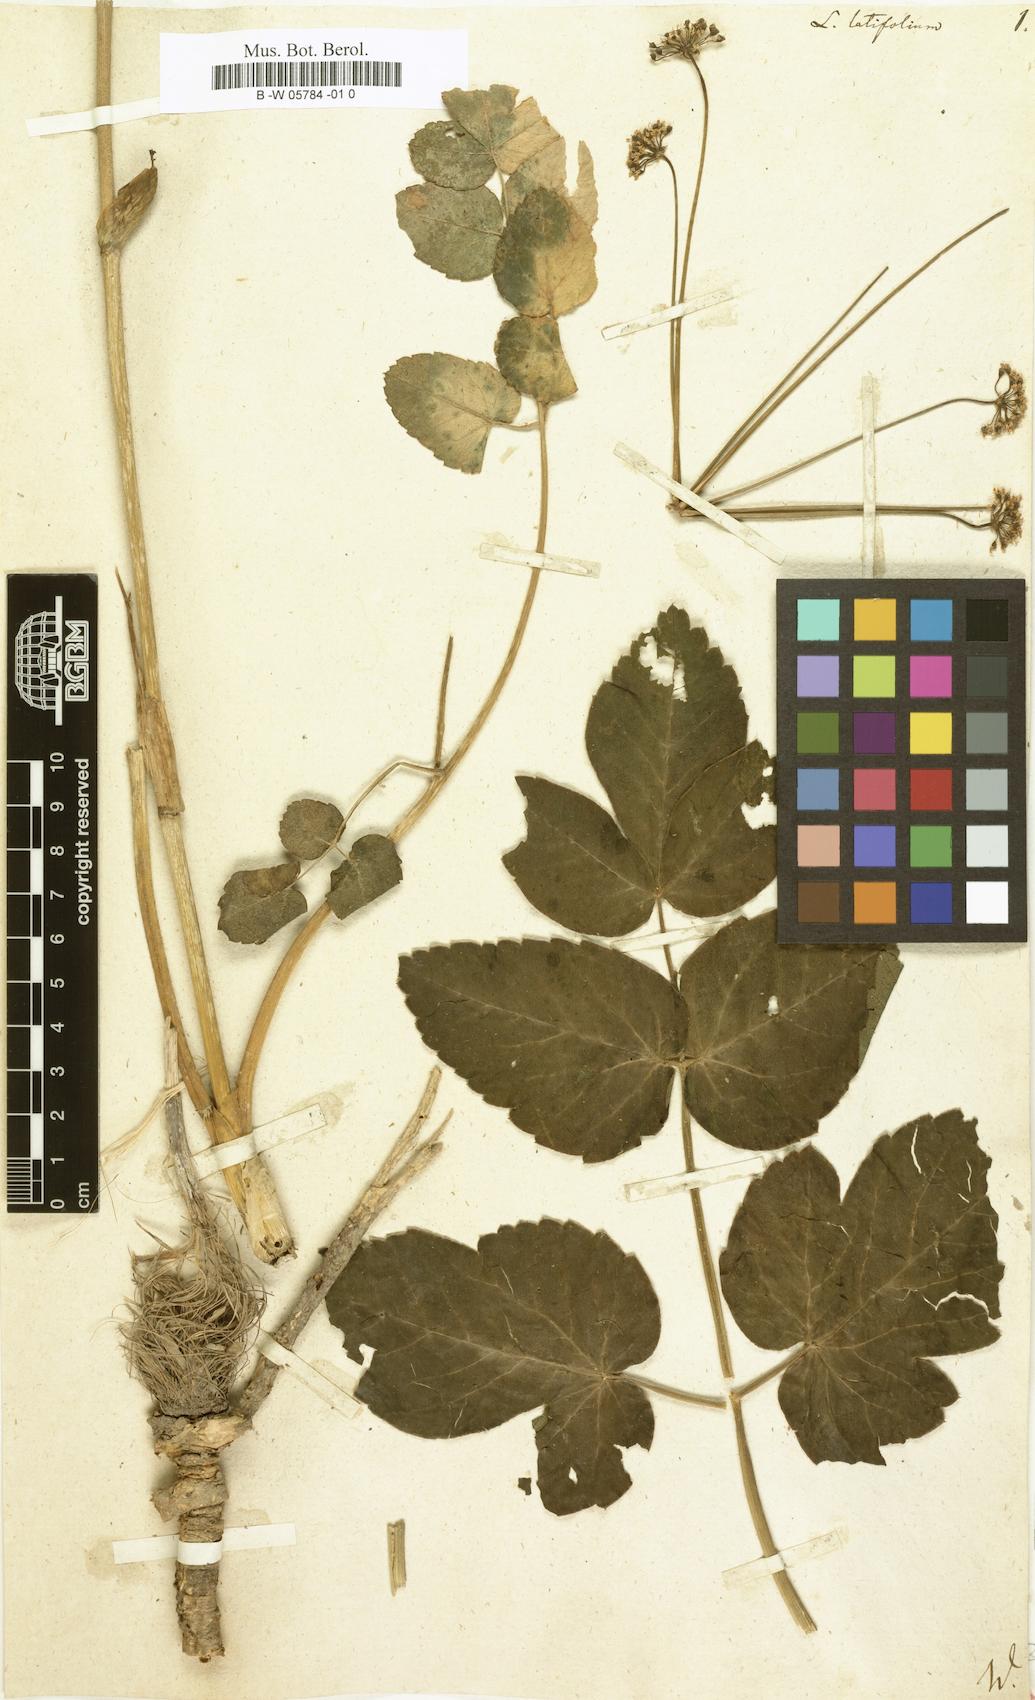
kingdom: Plantae
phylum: Tracheophyta
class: Magnoliopsida
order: Apiales
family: Apiaceae
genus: Laserpitium
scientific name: Laserpitium latifolium
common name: Broadleaf sermountain
